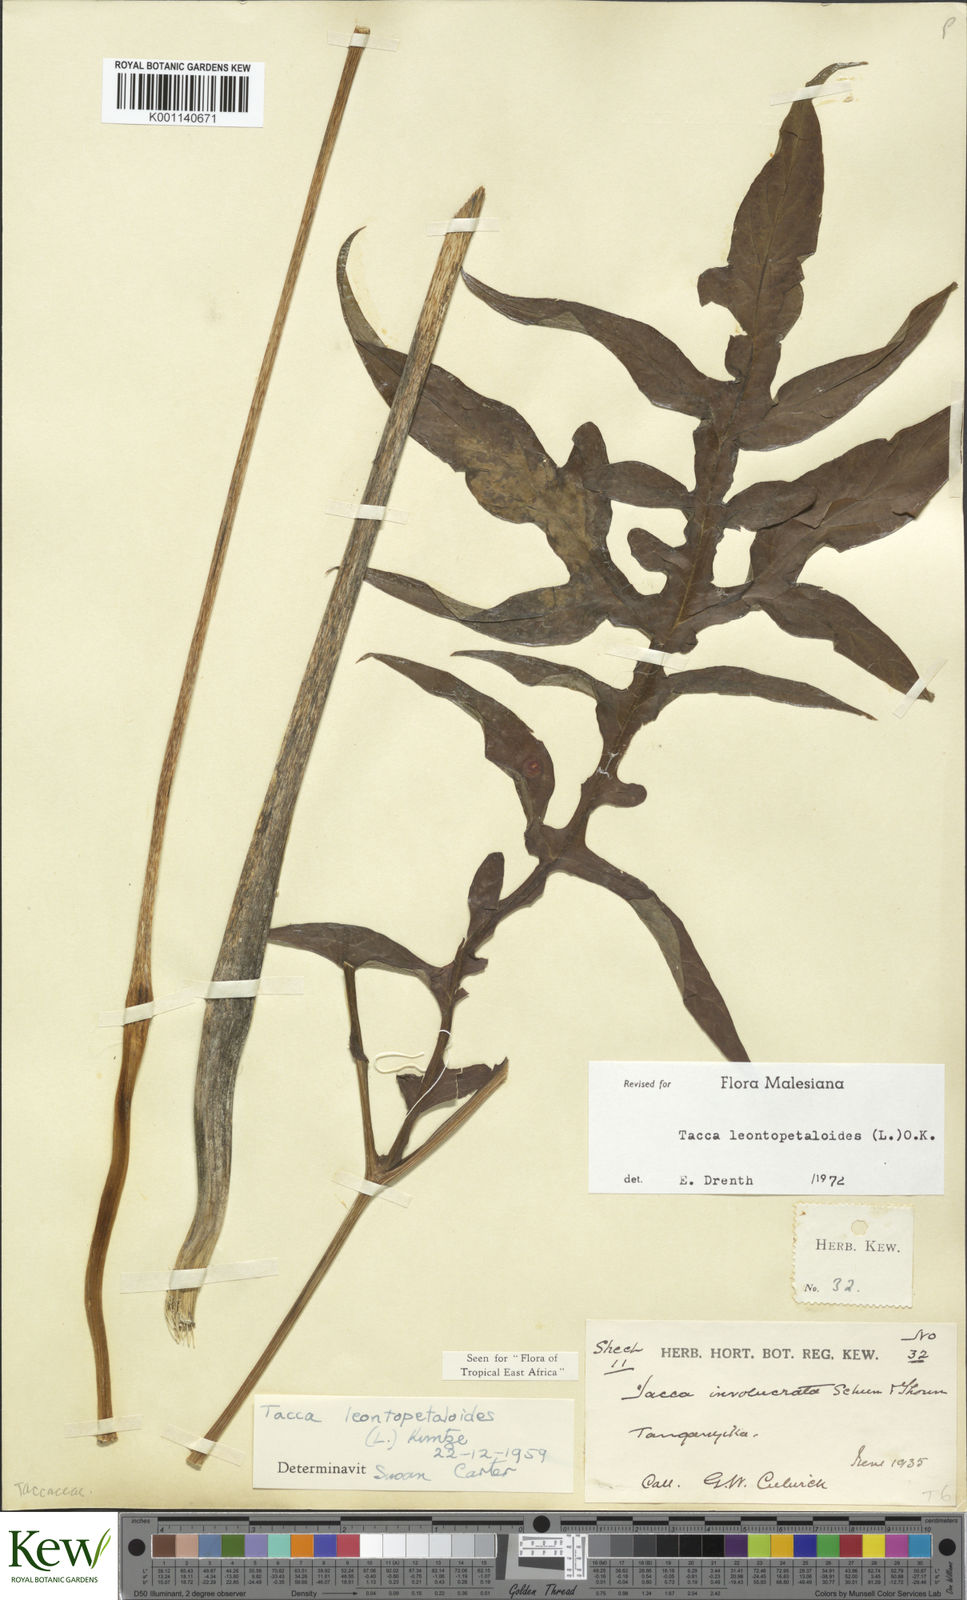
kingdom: Plantae
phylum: Tracheophyta
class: Liliopsida
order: Dioscoreales
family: Dioscoreaceae
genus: Tacca
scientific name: Tacca leontopetaloides
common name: Arrowroot
